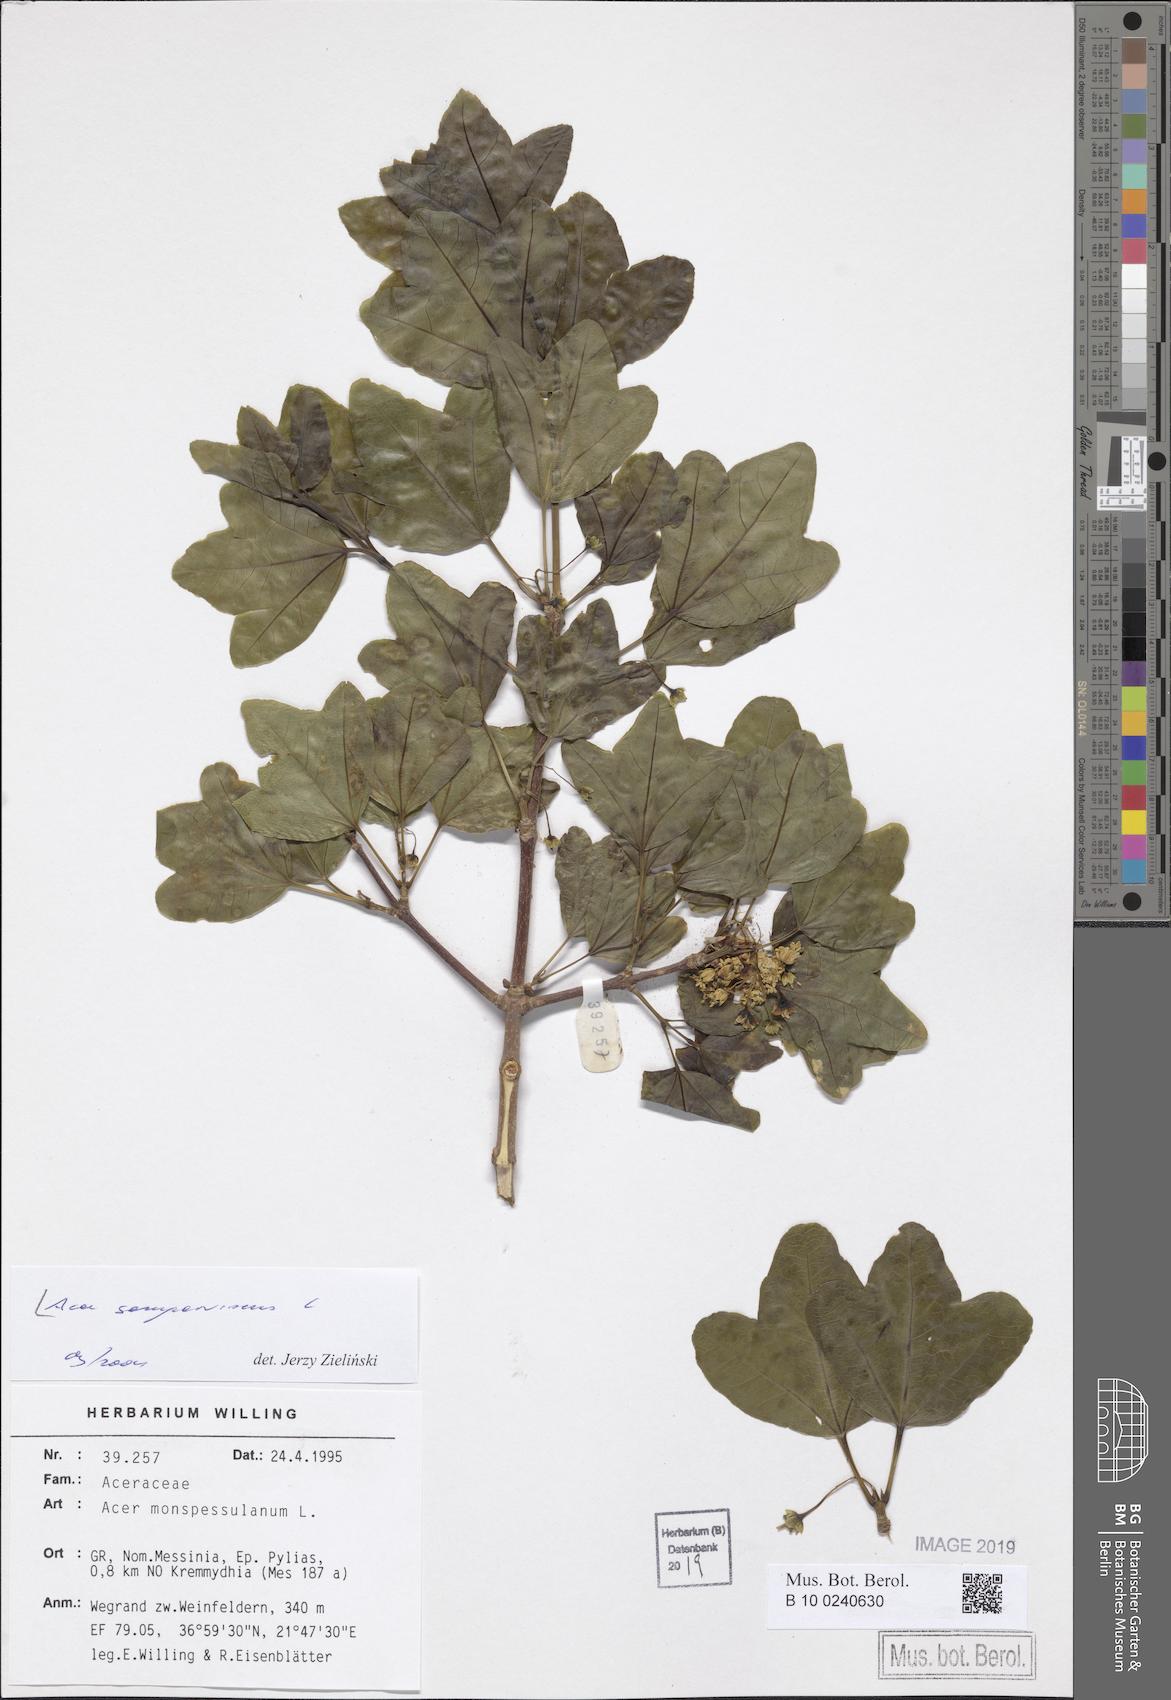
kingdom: Plantae
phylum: Tracheophyta
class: Magnoliopsida
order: Sapindales
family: Sapindaceae
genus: Acer
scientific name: Acer sempervirens
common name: Cretan maple
